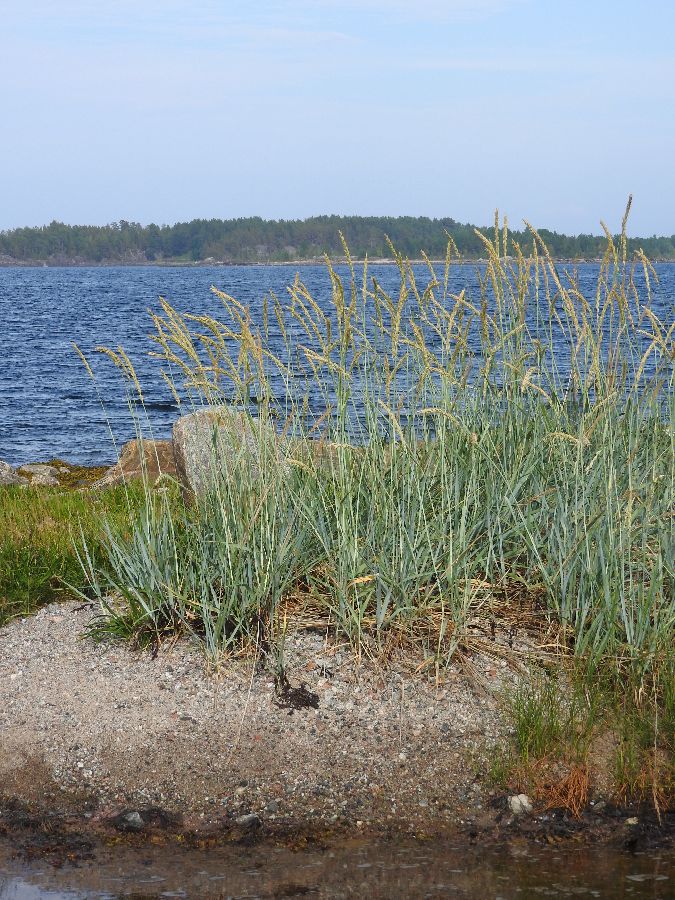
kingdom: Plantae
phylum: Tracheophyta
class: Liliopsida
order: Poales
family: Poaceae
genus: Leymus
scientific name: Leymus arenarius
